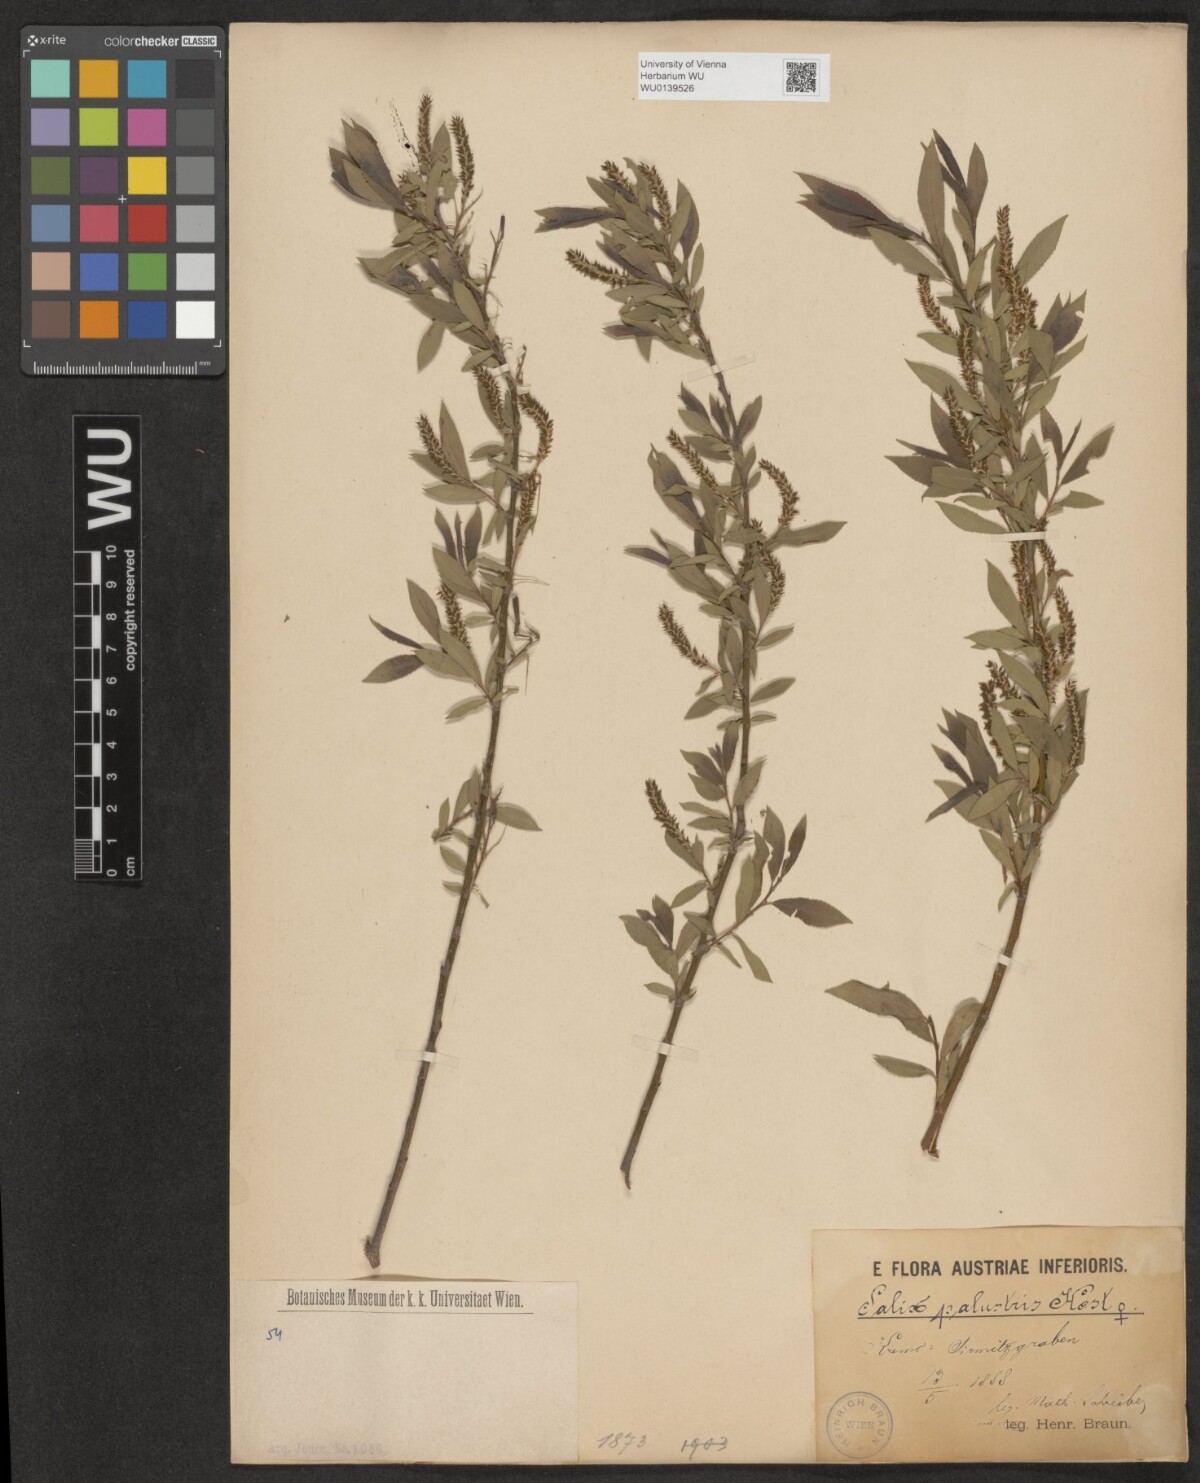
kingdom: Plantae
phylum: Tracheophyta
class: Magnoliopsida
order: Malpighiales
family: Salicaceae
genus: Salix
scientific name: Salix rubens
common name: Hybrid crack willow
